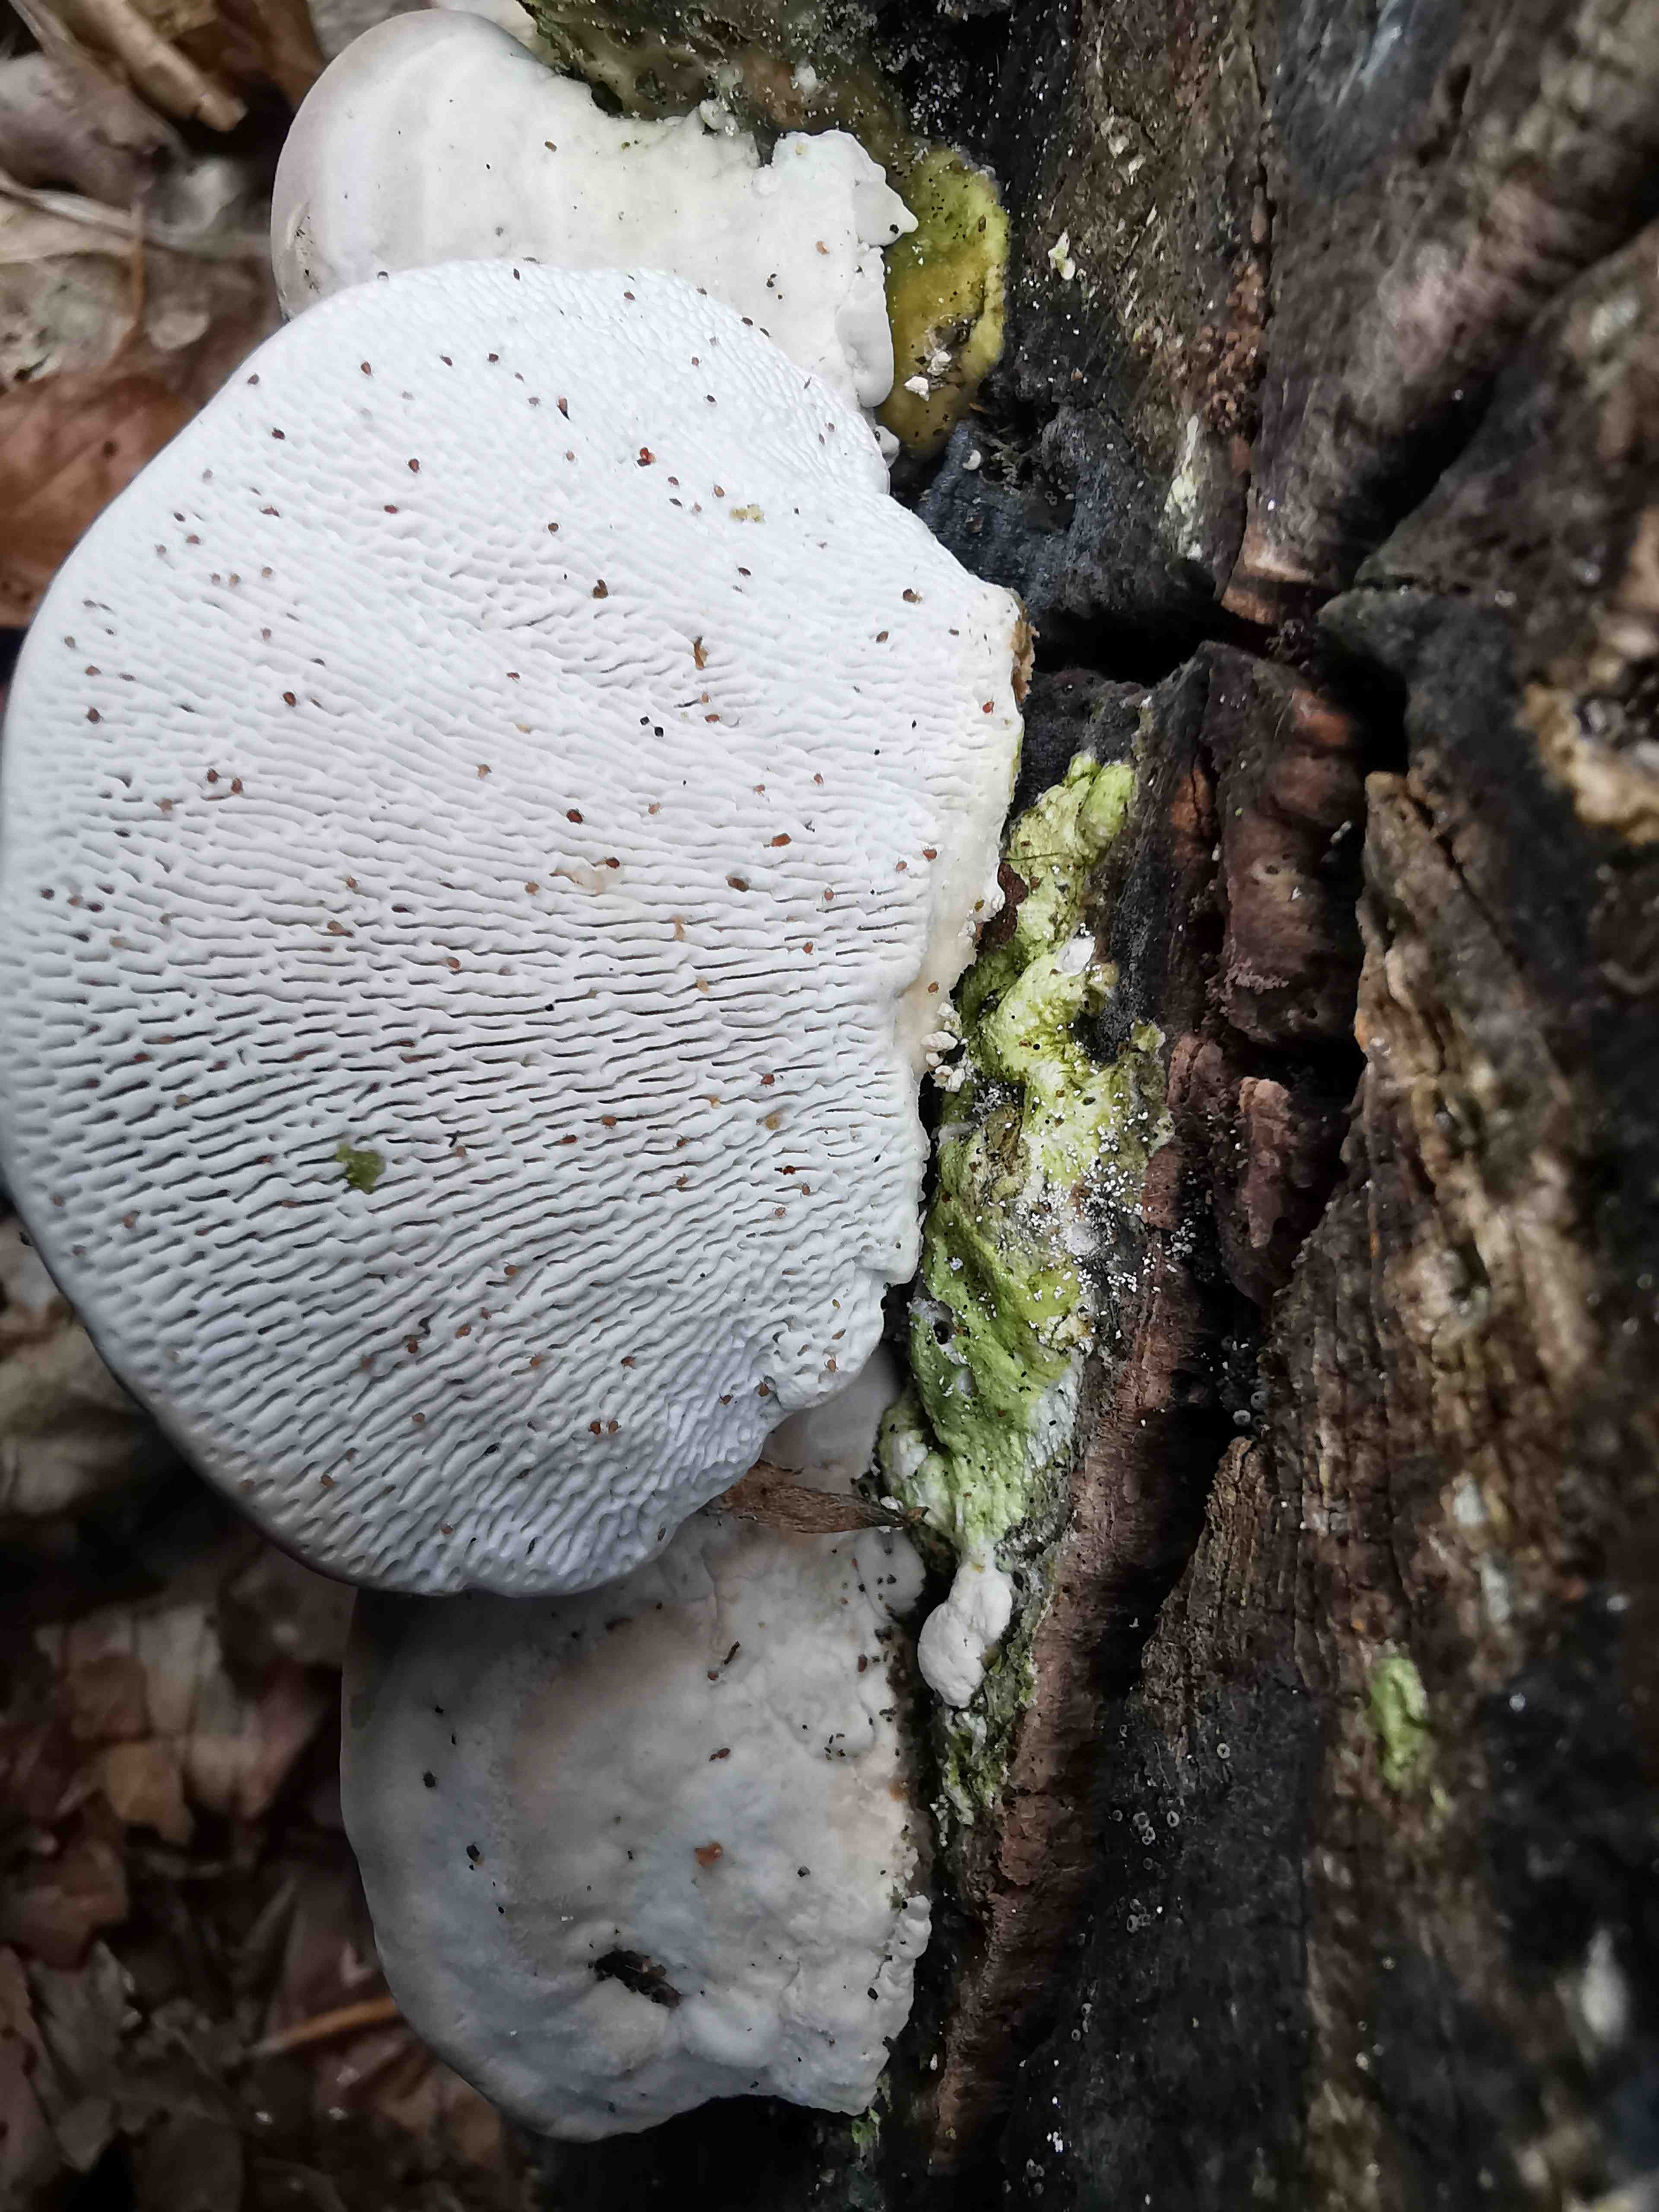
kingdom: Fungi
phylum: Basidiomycota
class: Agaricomycetes
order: Polyporales
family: Polyporaceae
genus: Trametes
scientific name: Trametes gibbosa
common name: puklet læderporesvamp
